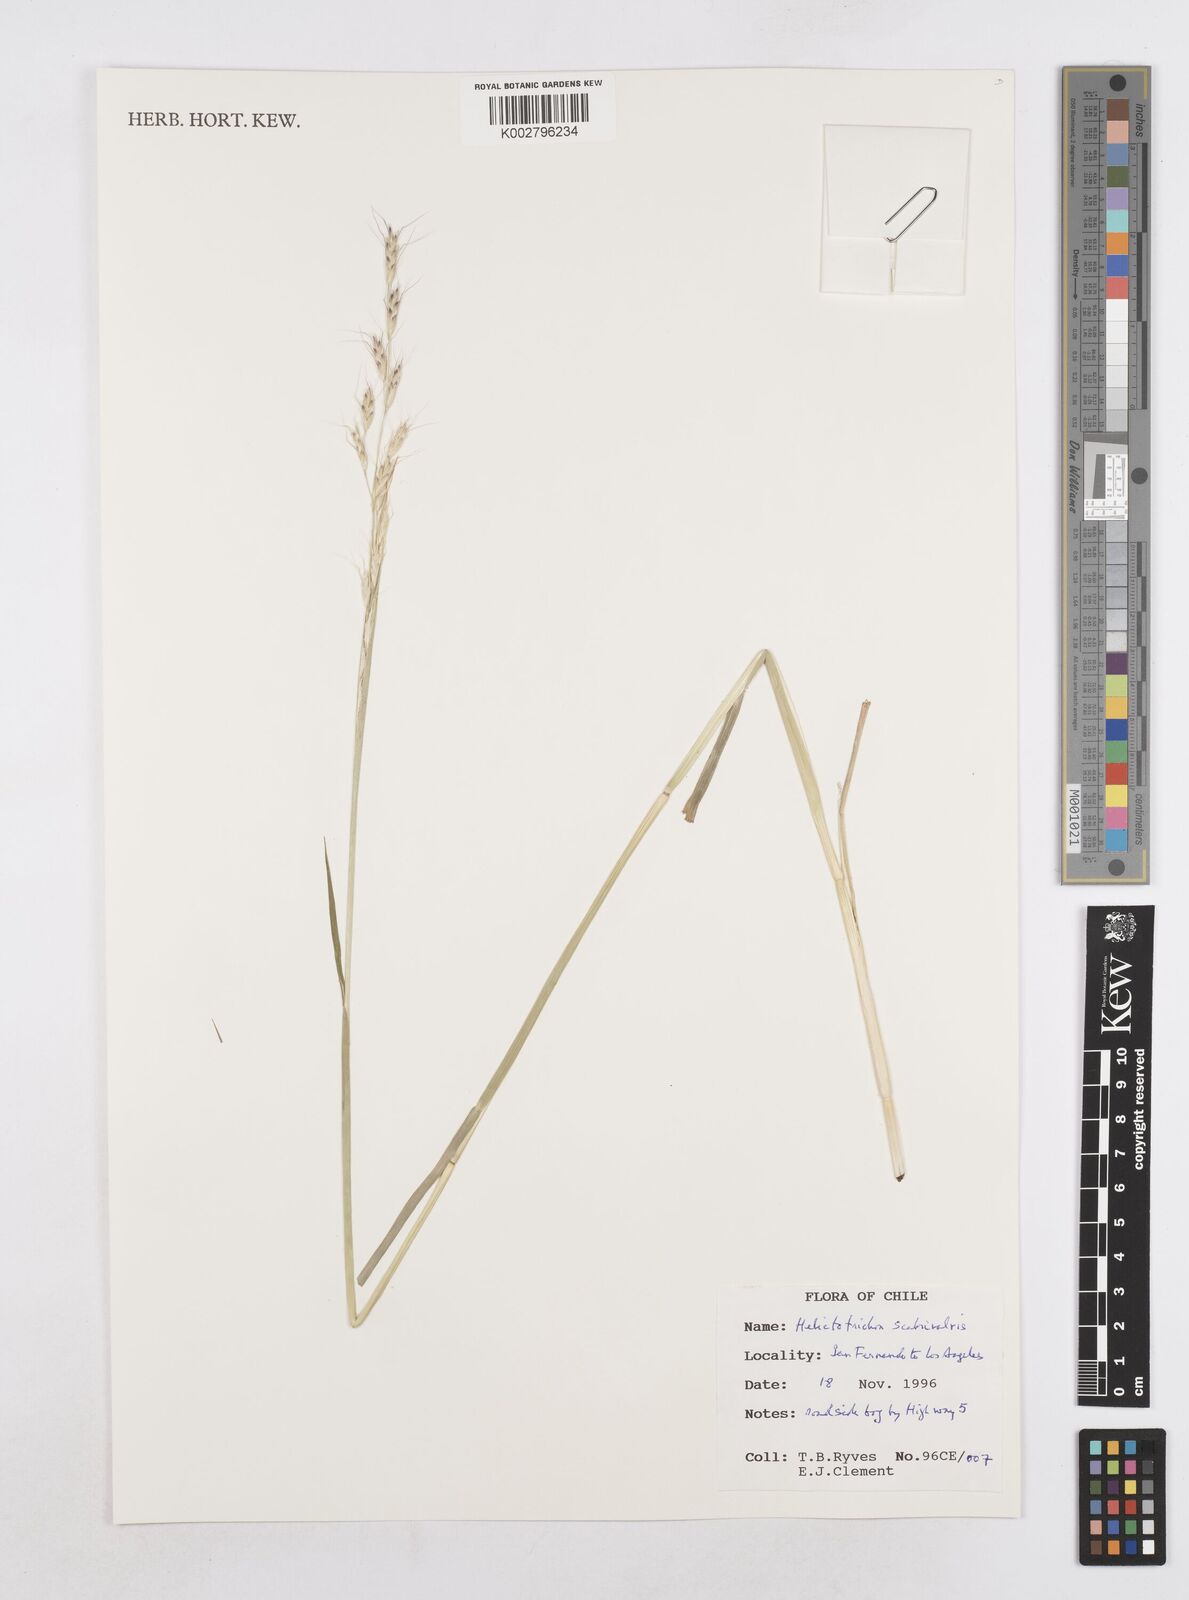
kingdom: Plantae
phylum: Tracheophyta
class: Liliopsida
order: Poales
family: Poaceae
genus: Helictotrichon
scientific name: Helictotrichon
